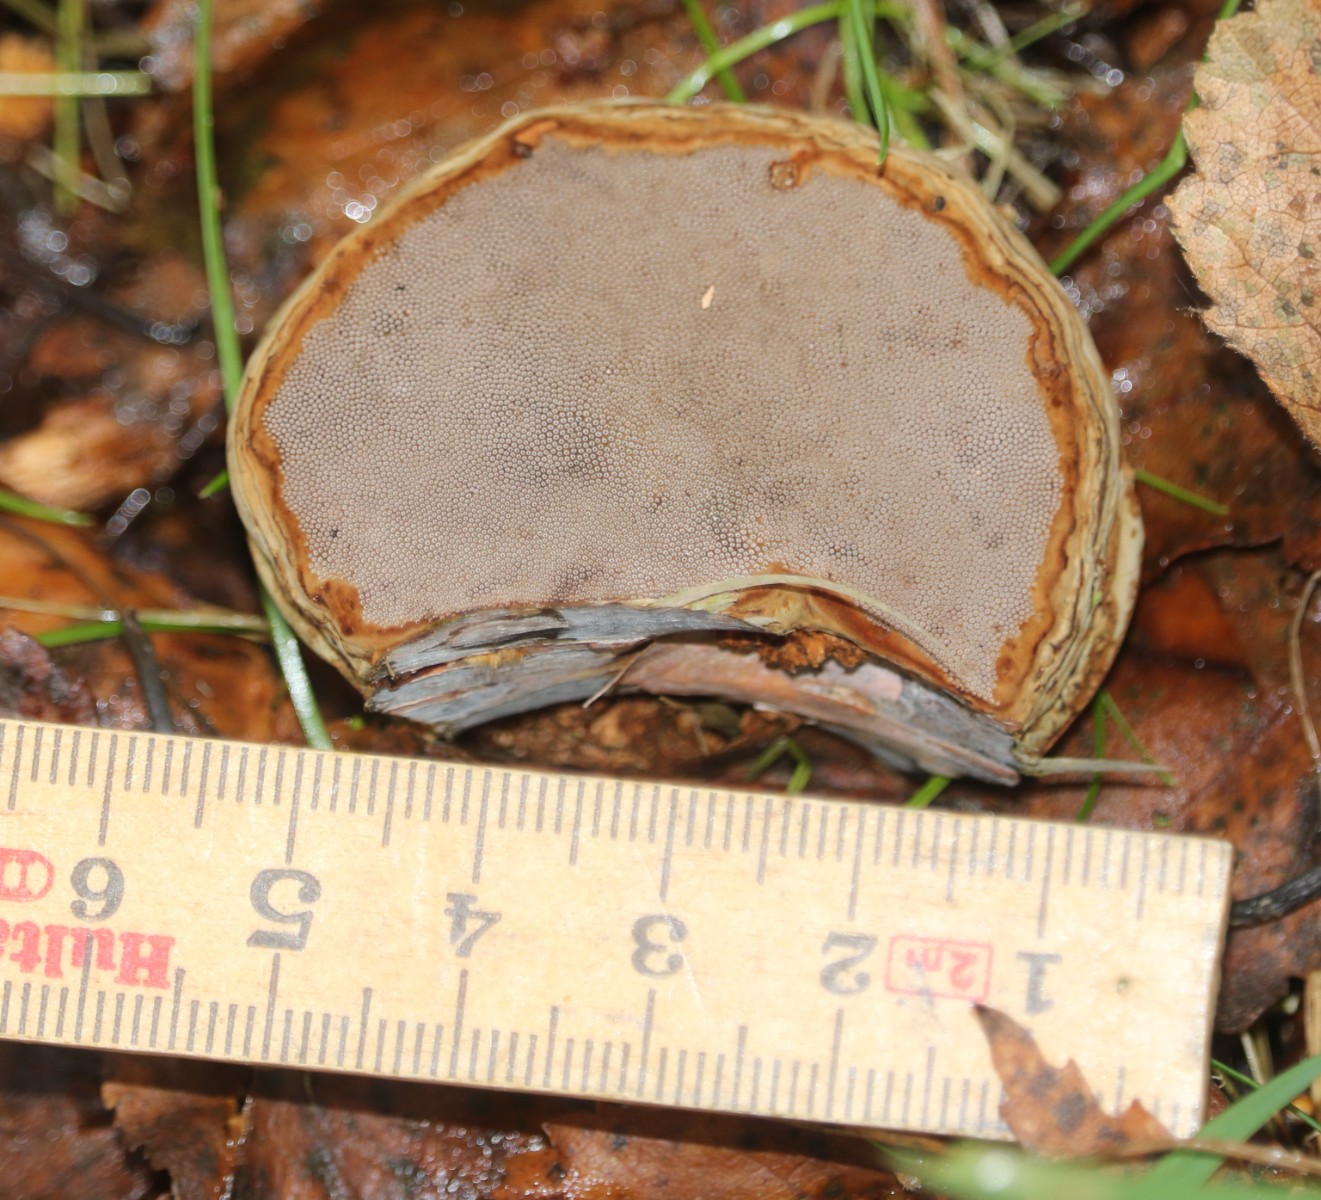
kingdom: Fungi
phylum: Basidiomycota
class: Agaricomycetes
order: Polyporales
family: Polyporaceae
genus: Fomes
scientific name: Fomes fomentarius
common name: tøndersvamp
